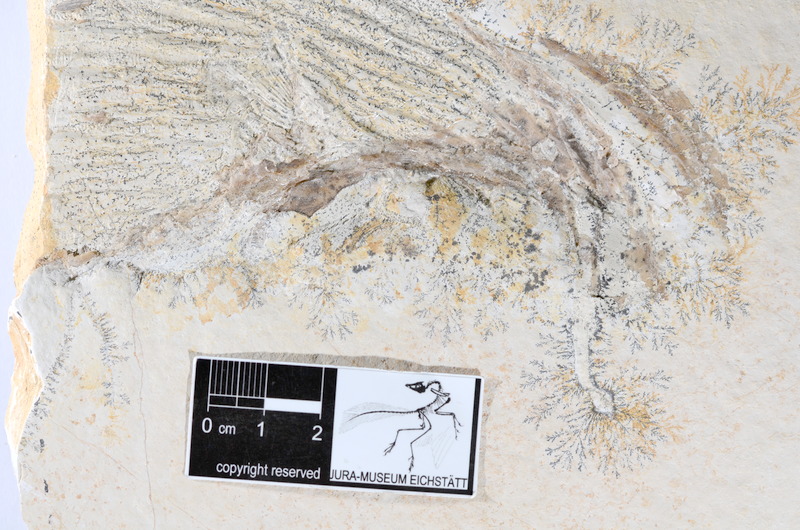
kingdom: Animalia
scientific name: Animalia
